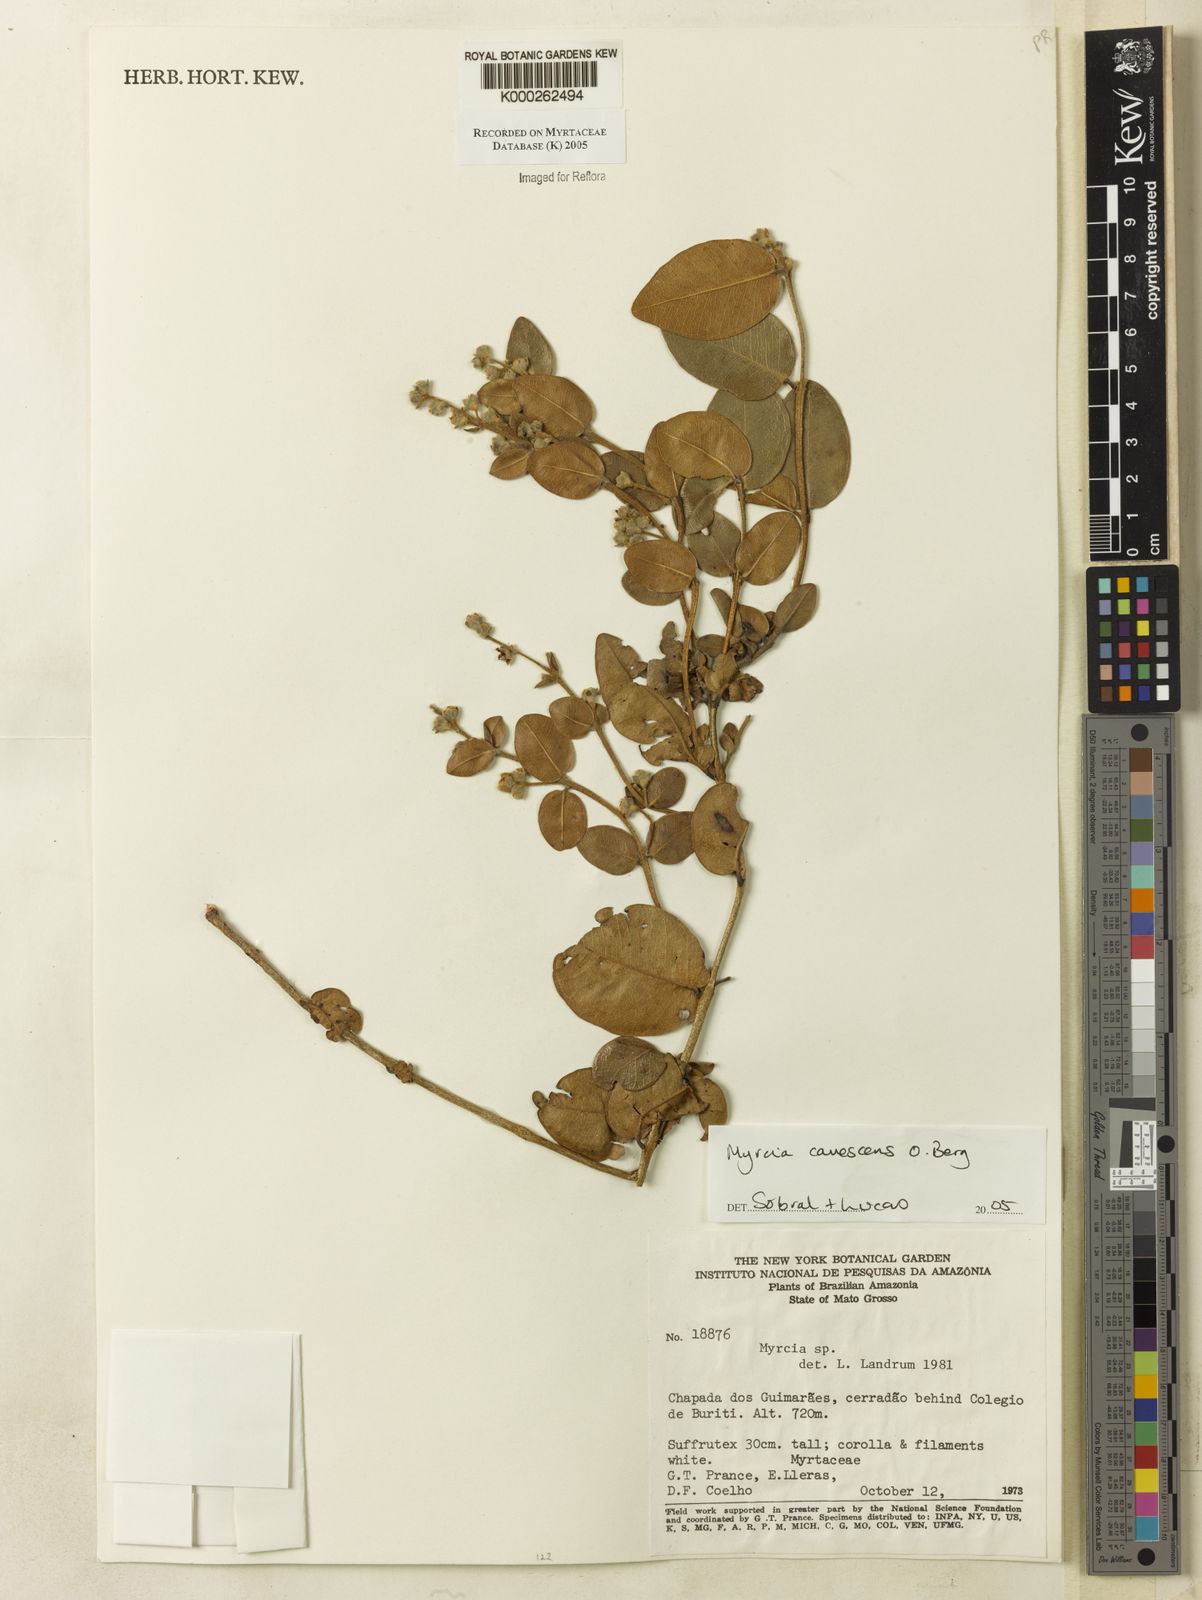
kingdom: Plantae
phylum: Tracheophyta
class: Magnoliopsida
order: Myrtales
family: Myrtaceae
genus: Myrcia
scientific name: Myrcia canescens
